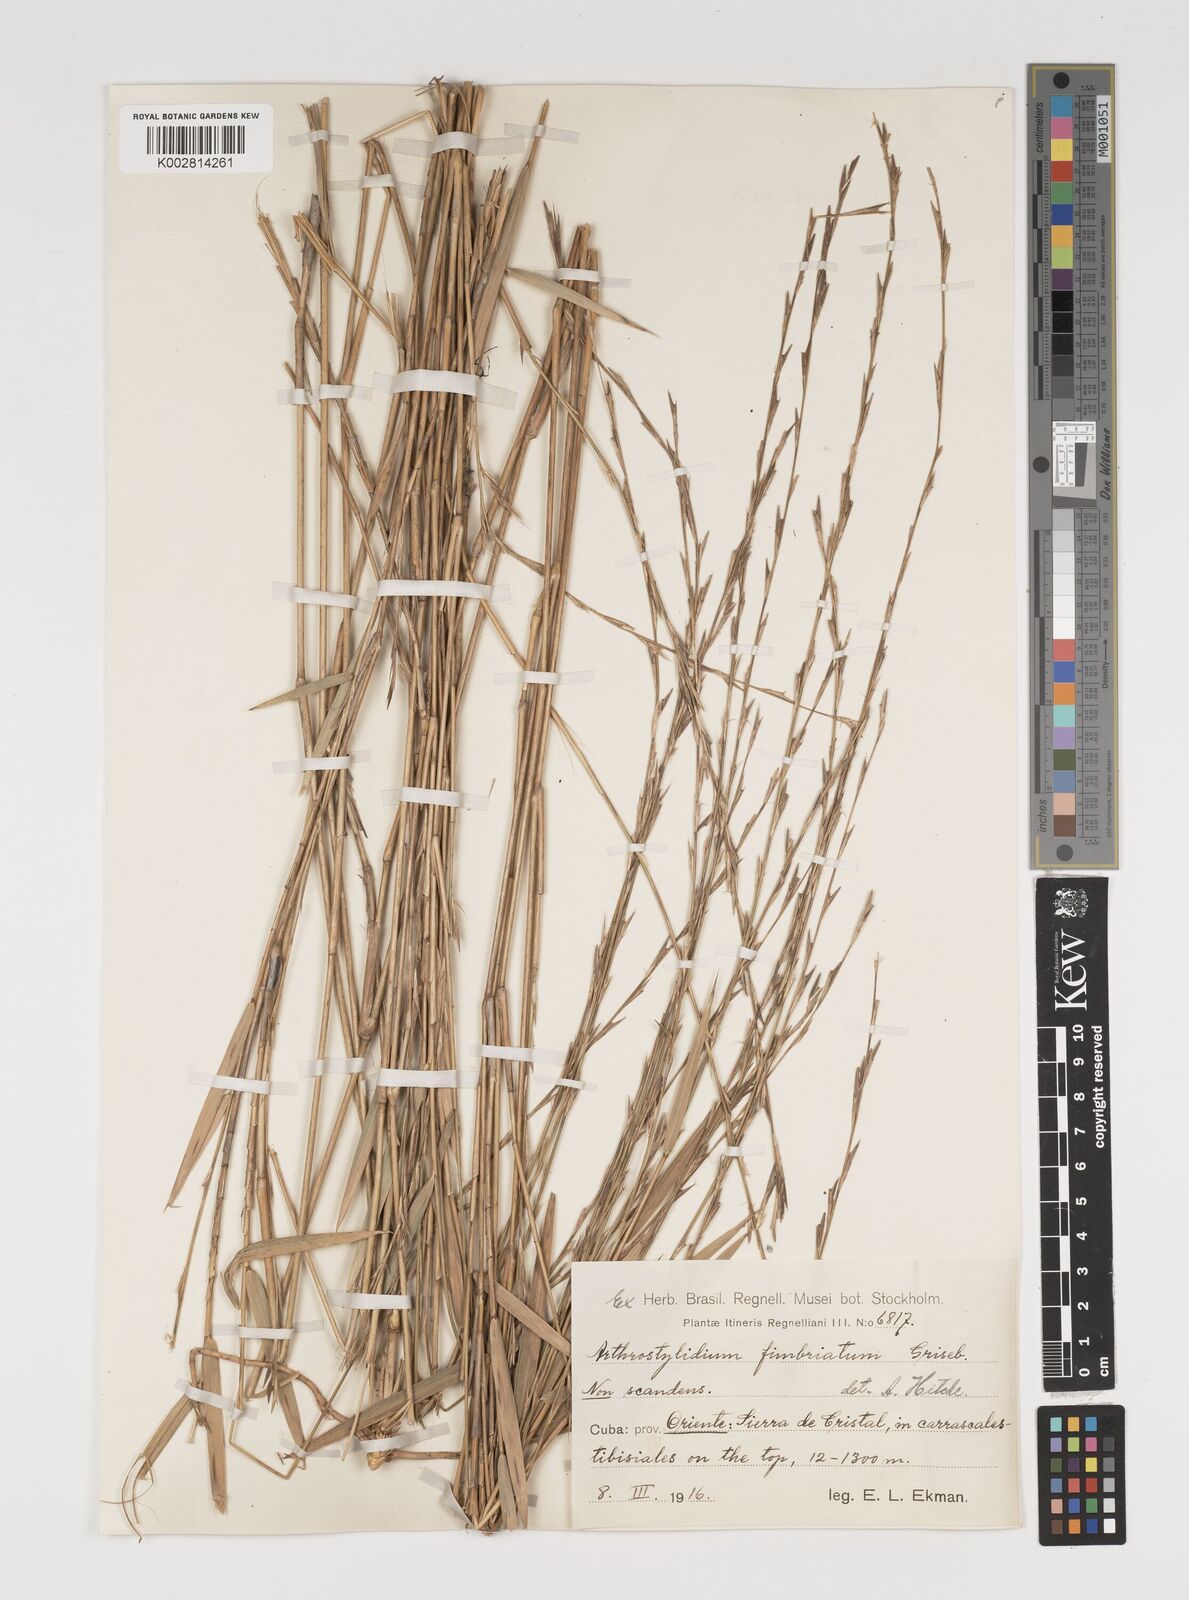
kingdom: Plantae
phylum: Tracheophyta
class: Liliopsida
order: Poales
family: Poaceae
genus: Arthrostylidium
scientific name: Arthrostylidium fimbriatum
